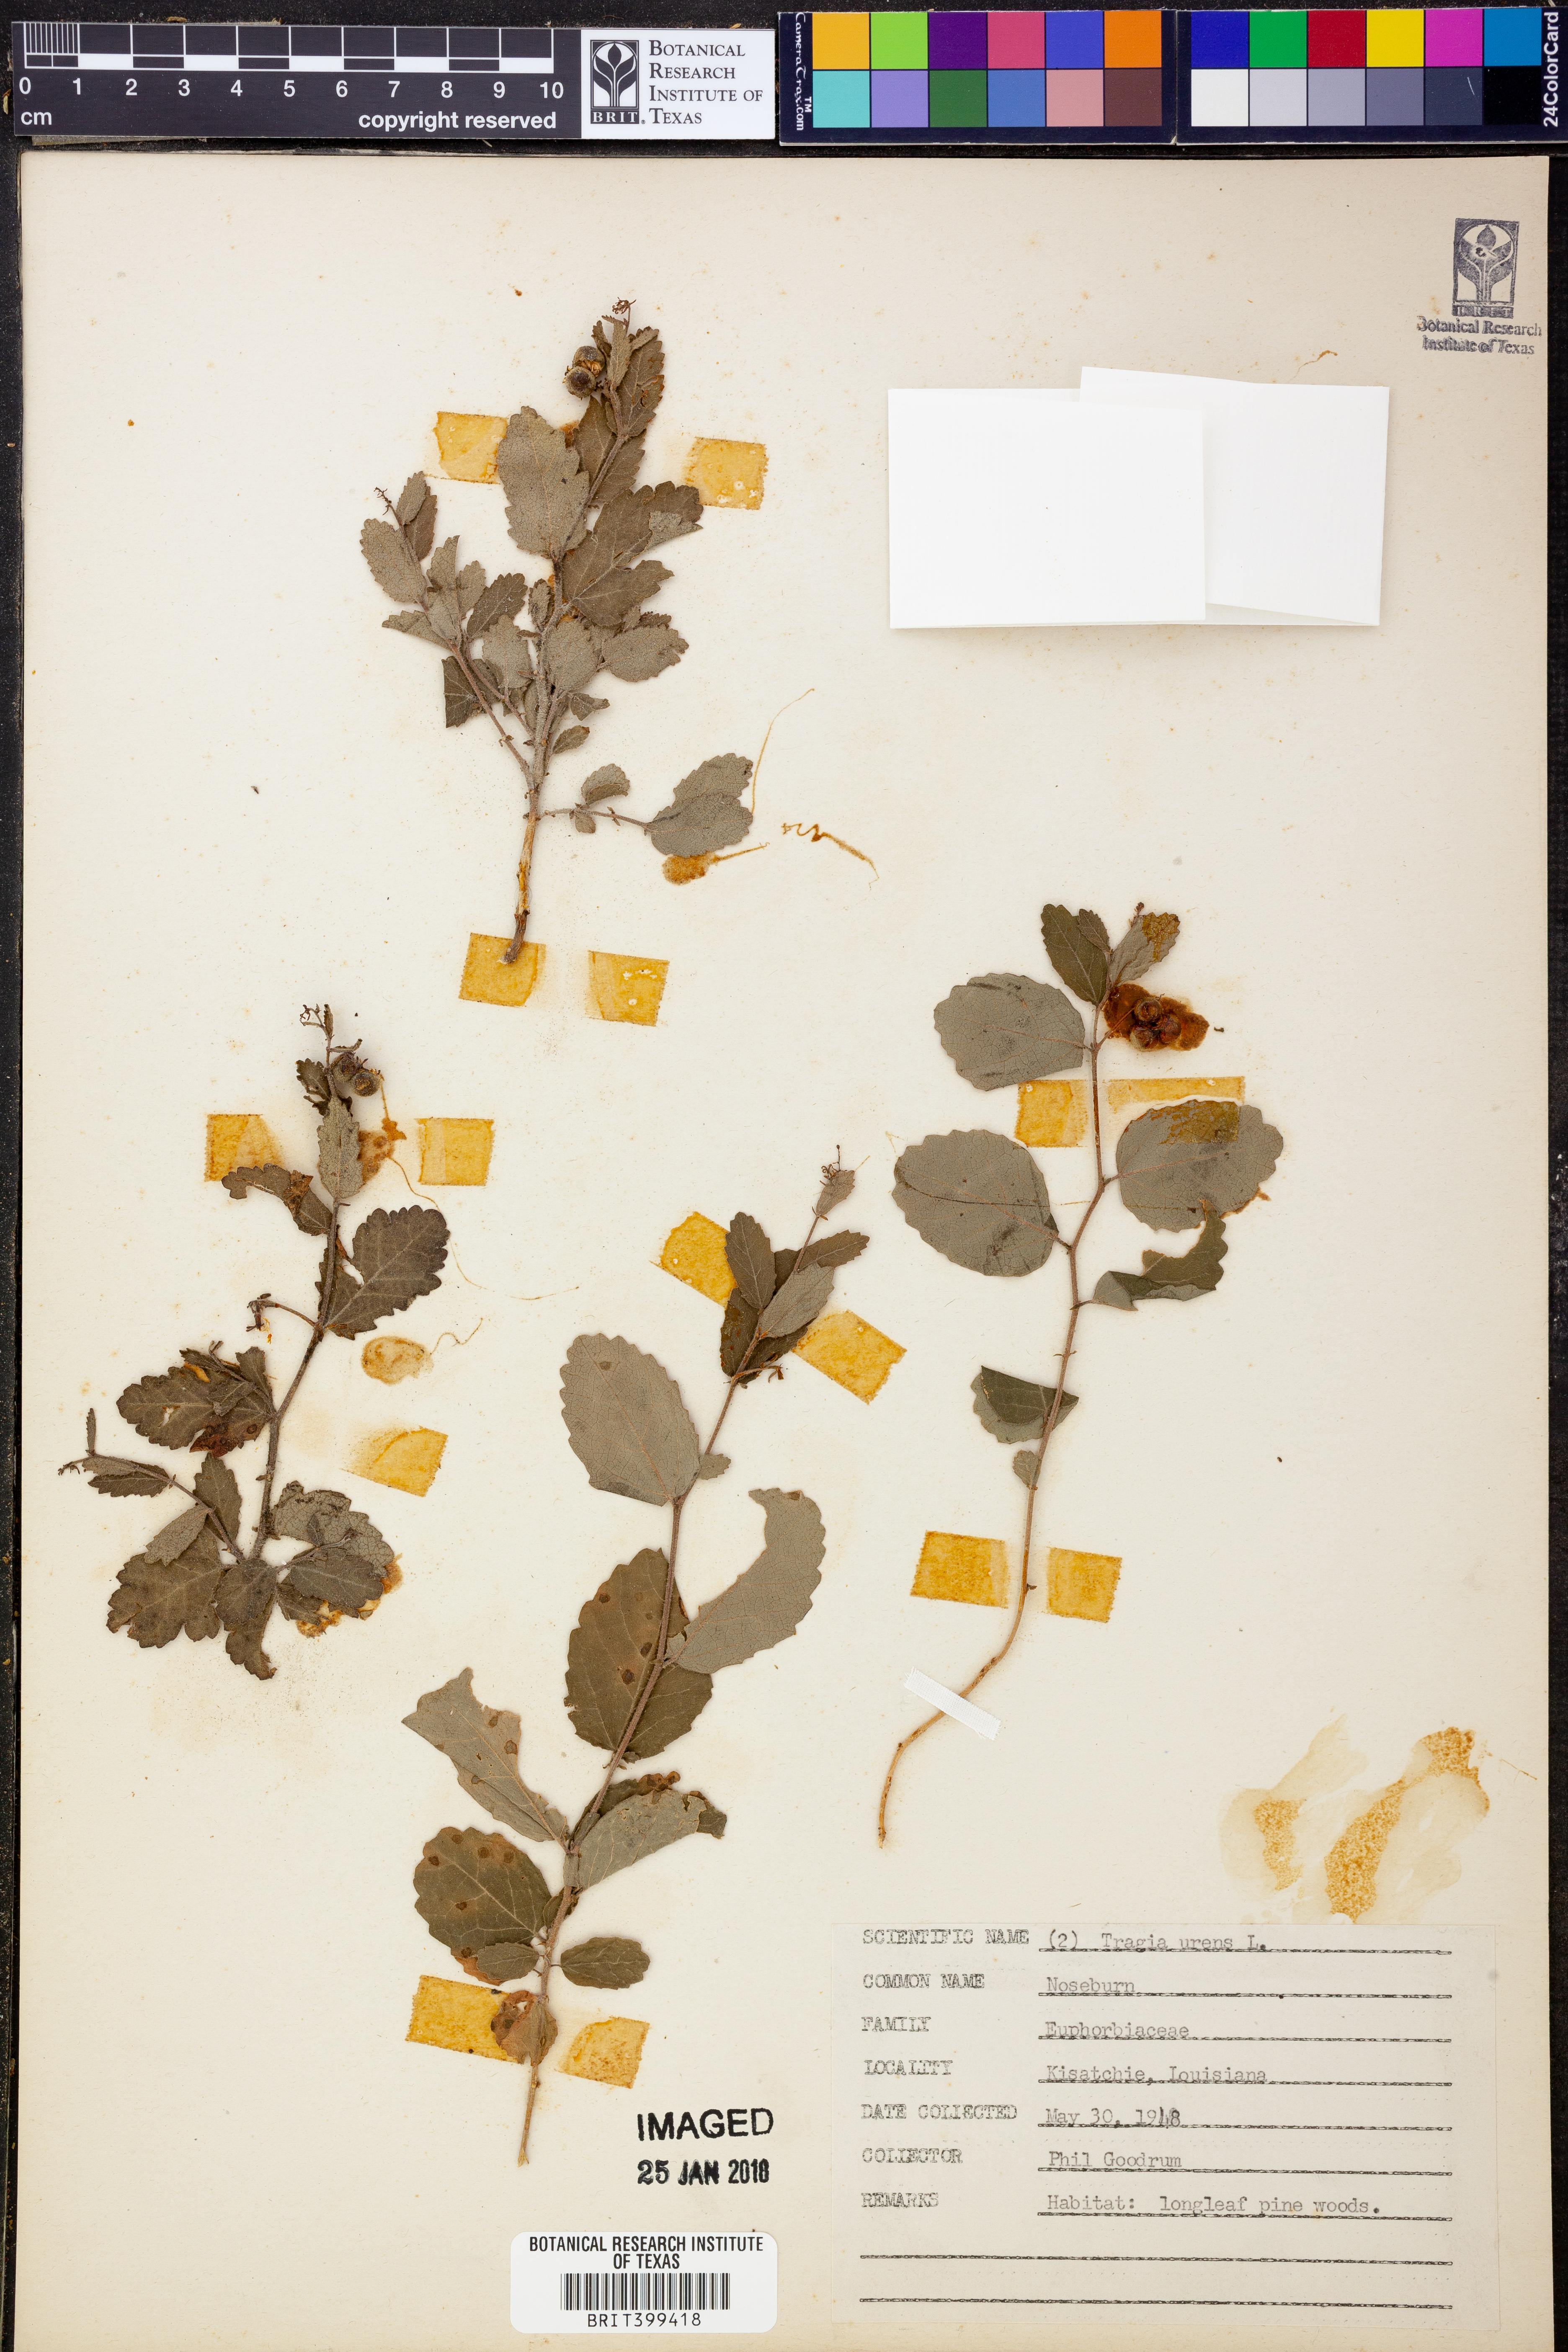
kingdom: Plantae
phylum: Tracheophyta
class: Magnoliopsida
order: Malpighiales
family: Euphorbiaceae
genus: Tragia
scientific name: Tragia urens
